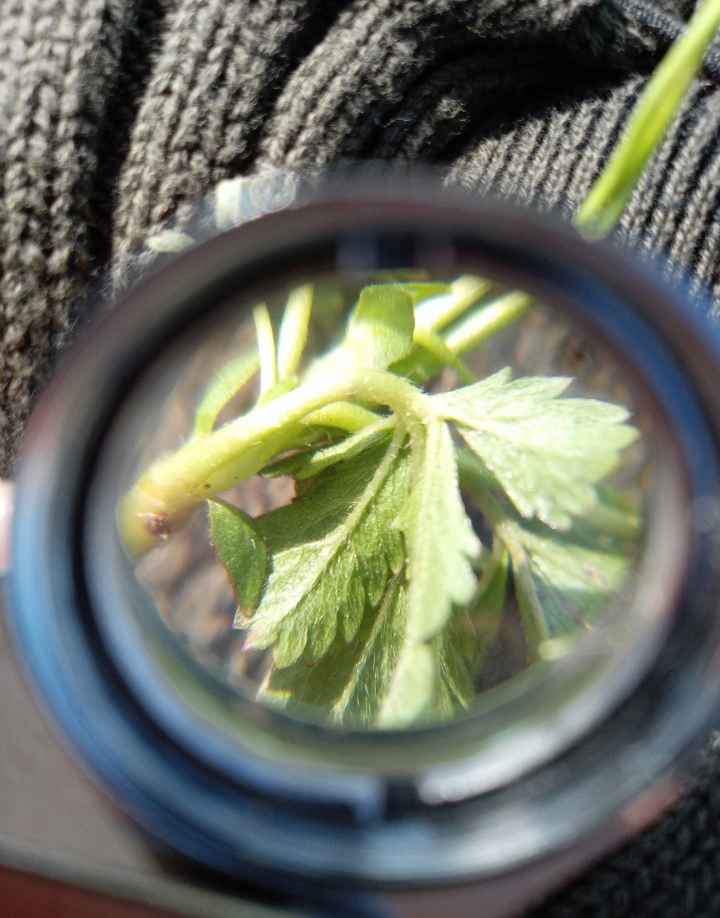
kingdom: Plantae
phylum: Tracheophyta
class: Magnoliopsida
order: Rosales
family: Rosaceae
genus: Potentilla
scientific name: Potentilla reptans
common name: Krybende potentil
